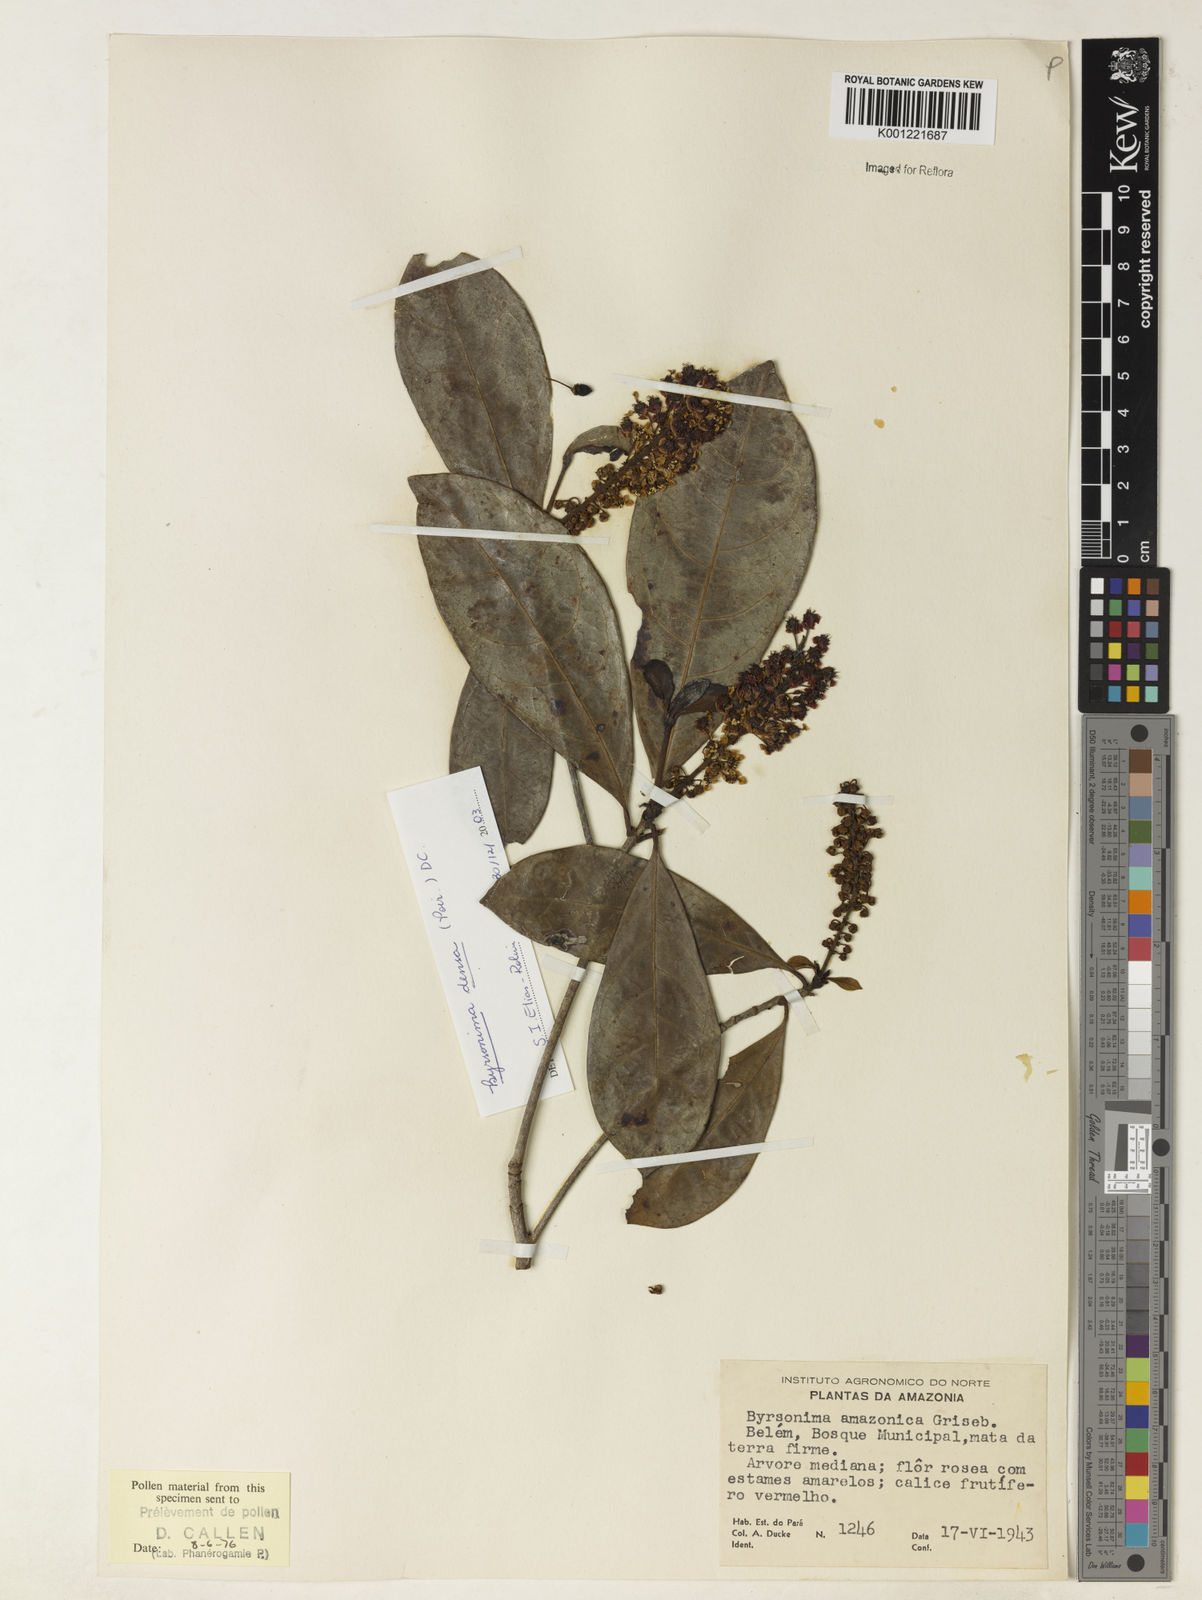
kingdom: Plantae
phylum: Tracheophyta
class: Magnoliopsida
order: Malpighiales
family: Malpighiaceae
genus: Byrsonima
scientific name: Byrsonima densa
